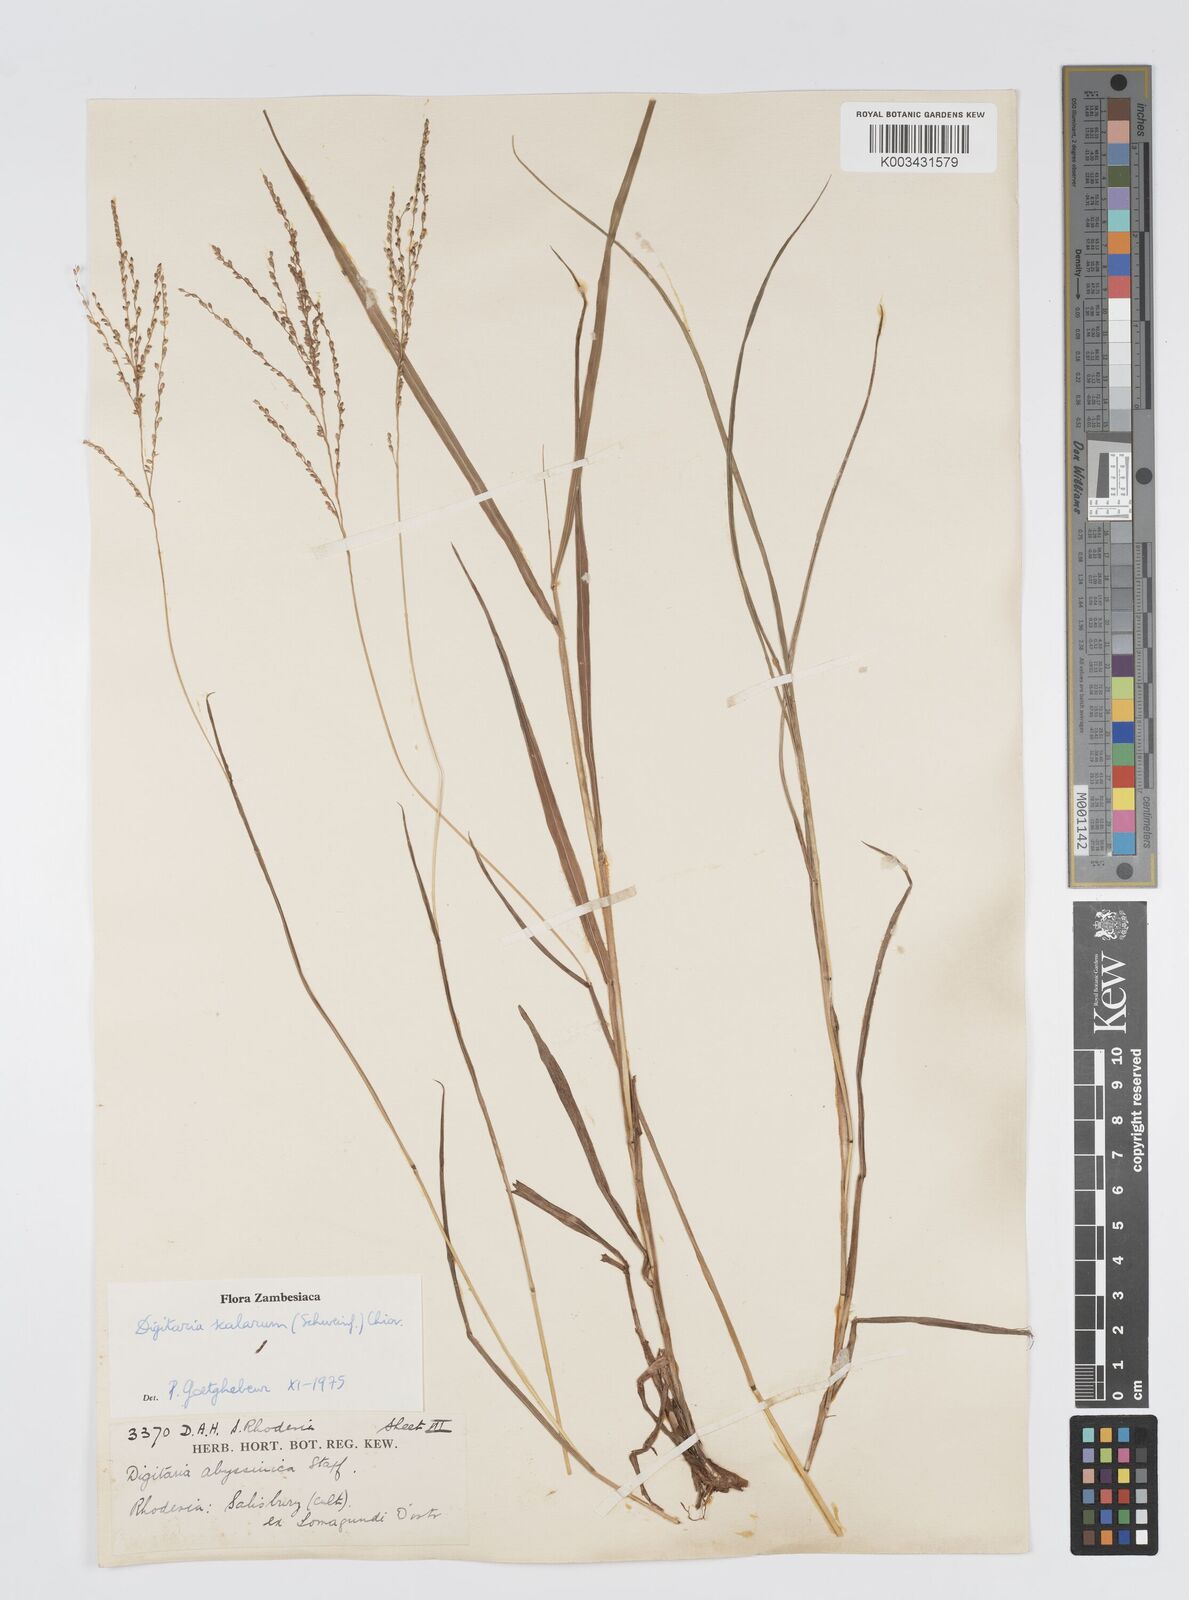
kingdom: Plantae
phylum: Tracheophyta
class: Liliopsida
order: Poales
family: Poaceae
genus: Digitaria
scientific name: Digitaria abyssinica
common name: African couchgrass
